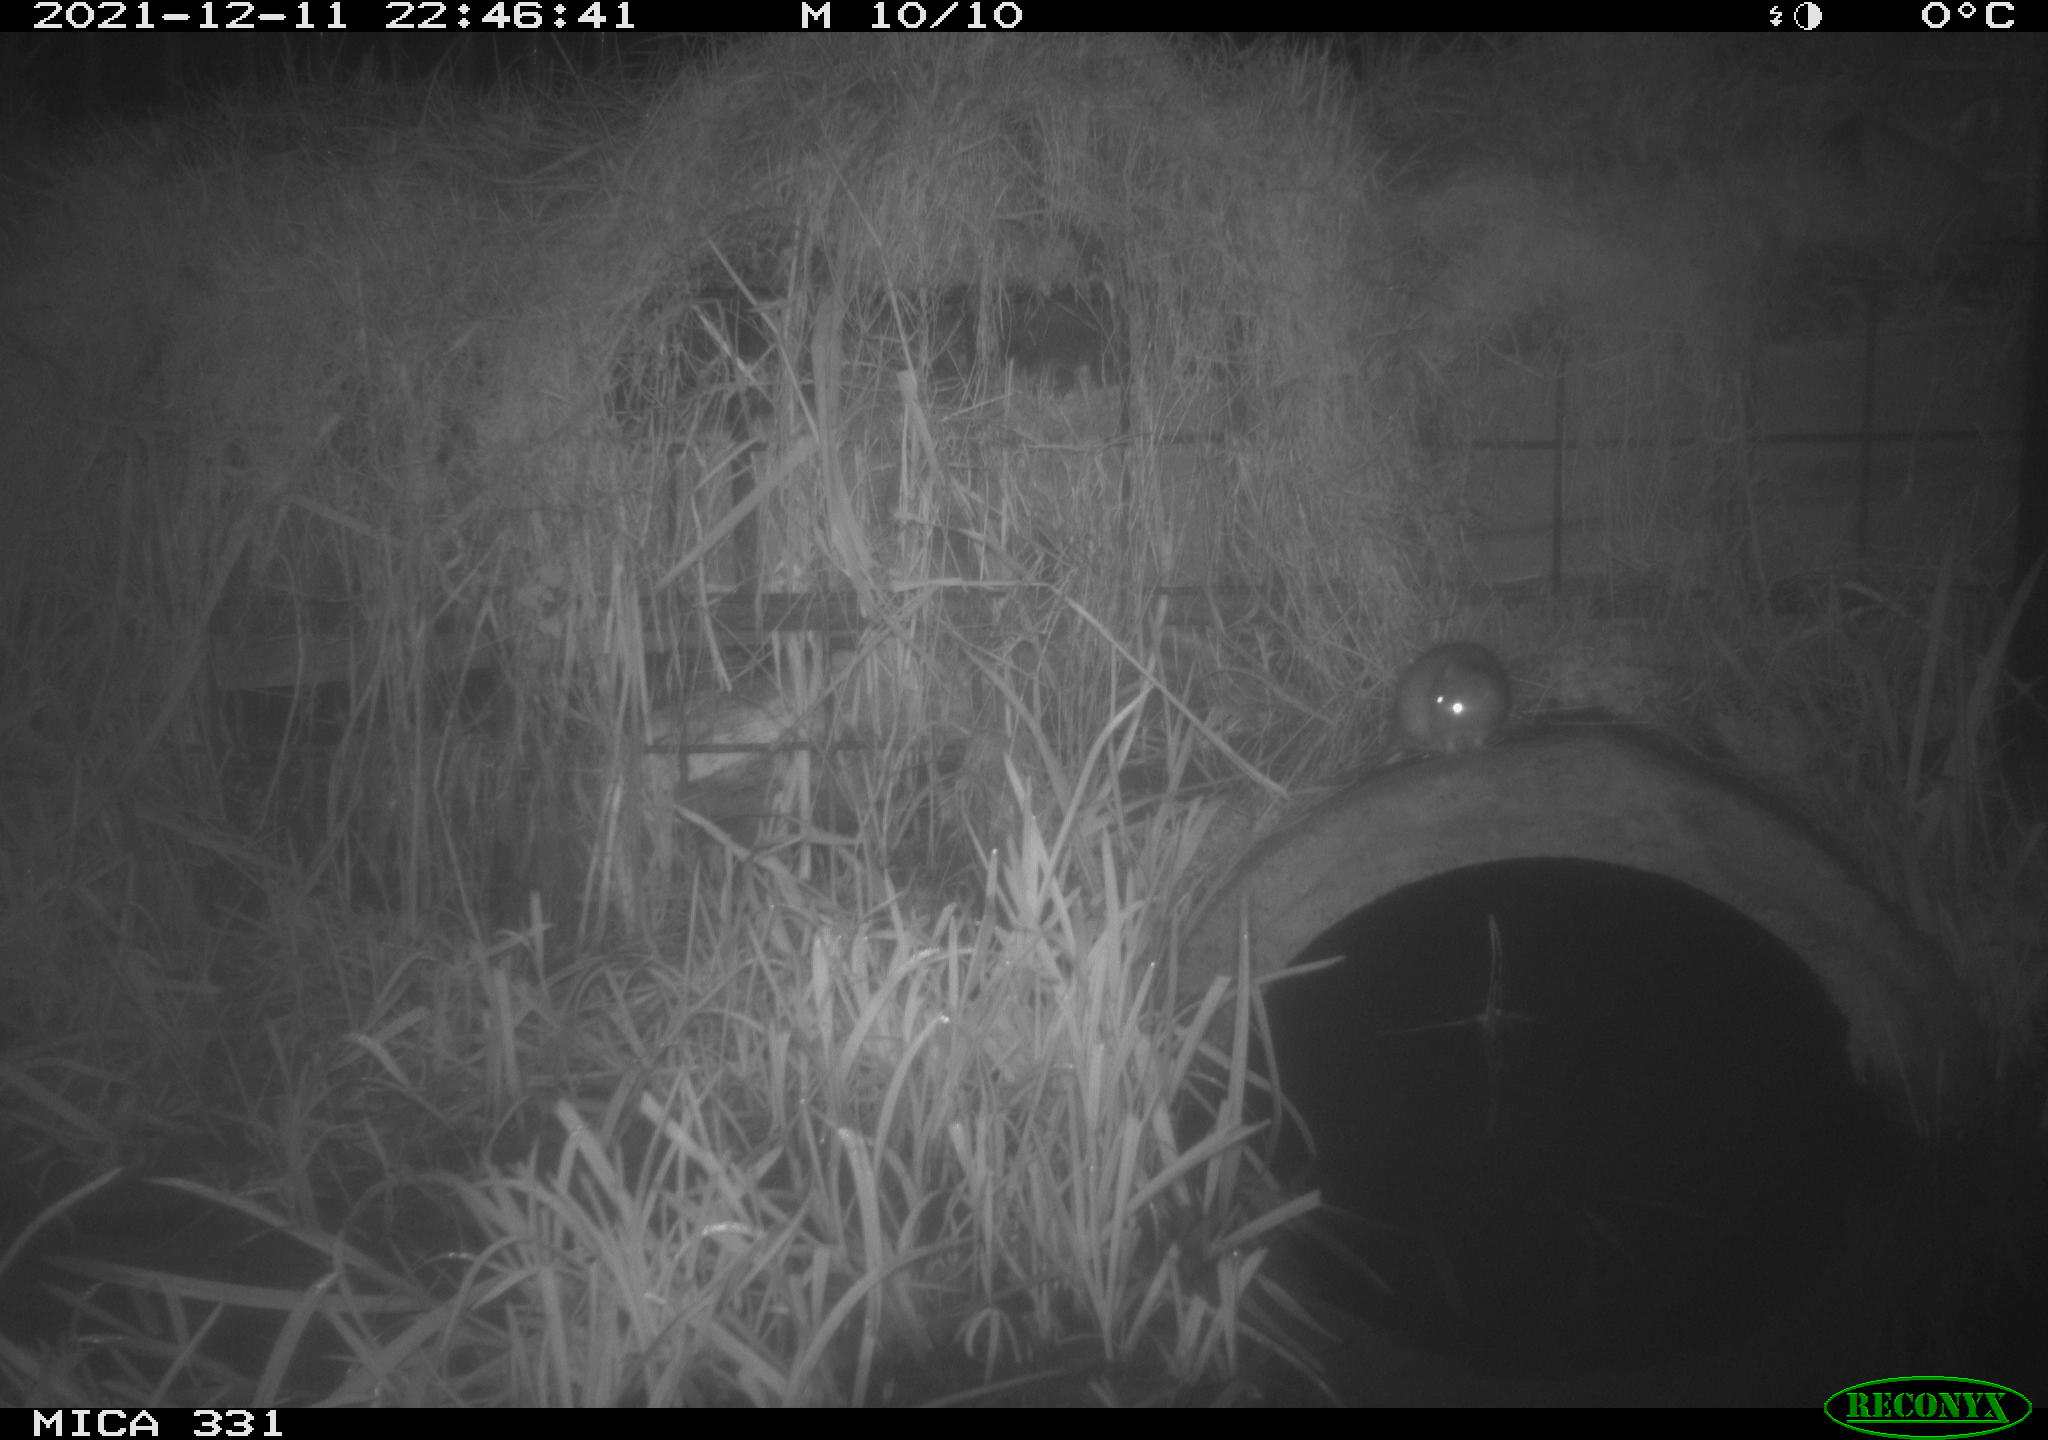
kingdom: Animalia
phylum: Chordata
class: Mammalia
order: Rodentia
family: Muridae
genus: Rattus
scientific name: Rattus norvegicus
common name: Brown rat
